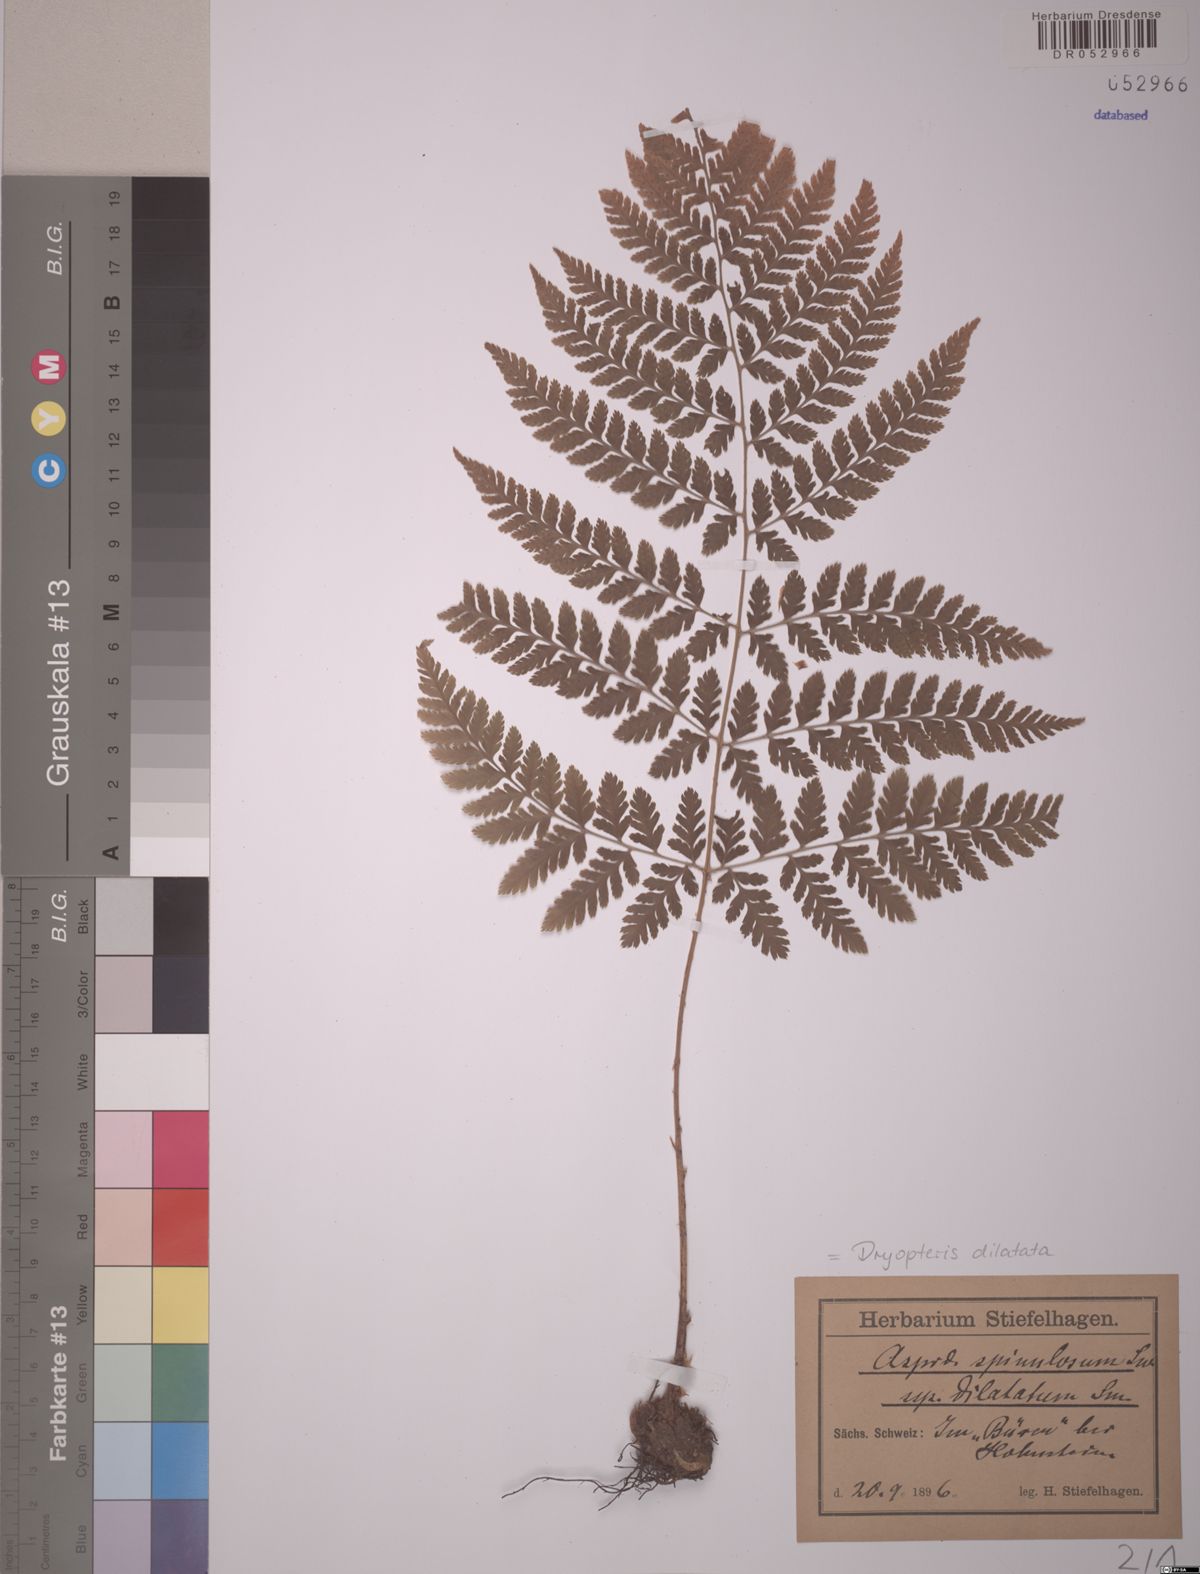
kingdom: Plantae
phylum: Tracheophyta
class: Polypodiopsida
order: Polypodiales
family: Dryopteridaceae
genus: Dryopteris
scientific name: Dryopteris dilatata
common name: Broad buckler-fern
